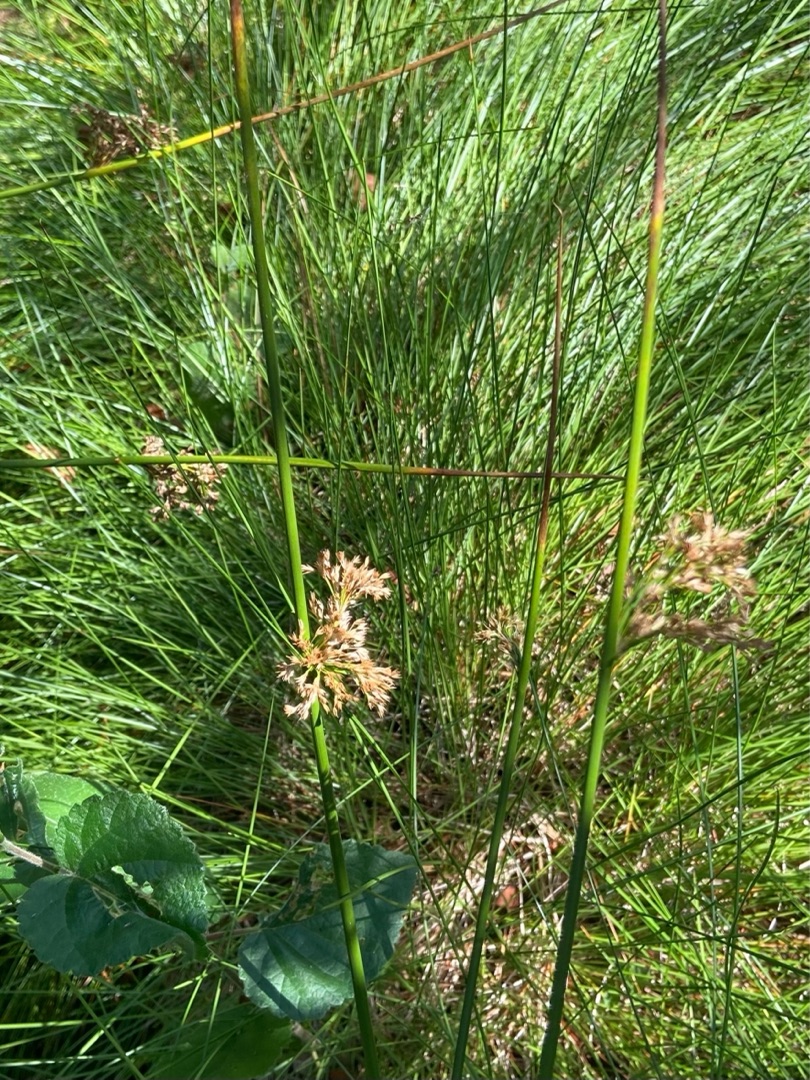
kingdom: Plantae
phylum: Tracheophyta
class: Liliopsida
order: Poales
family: Juncaceae
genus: Juncus
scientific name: Juncus effusus
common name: Lyse-siv
